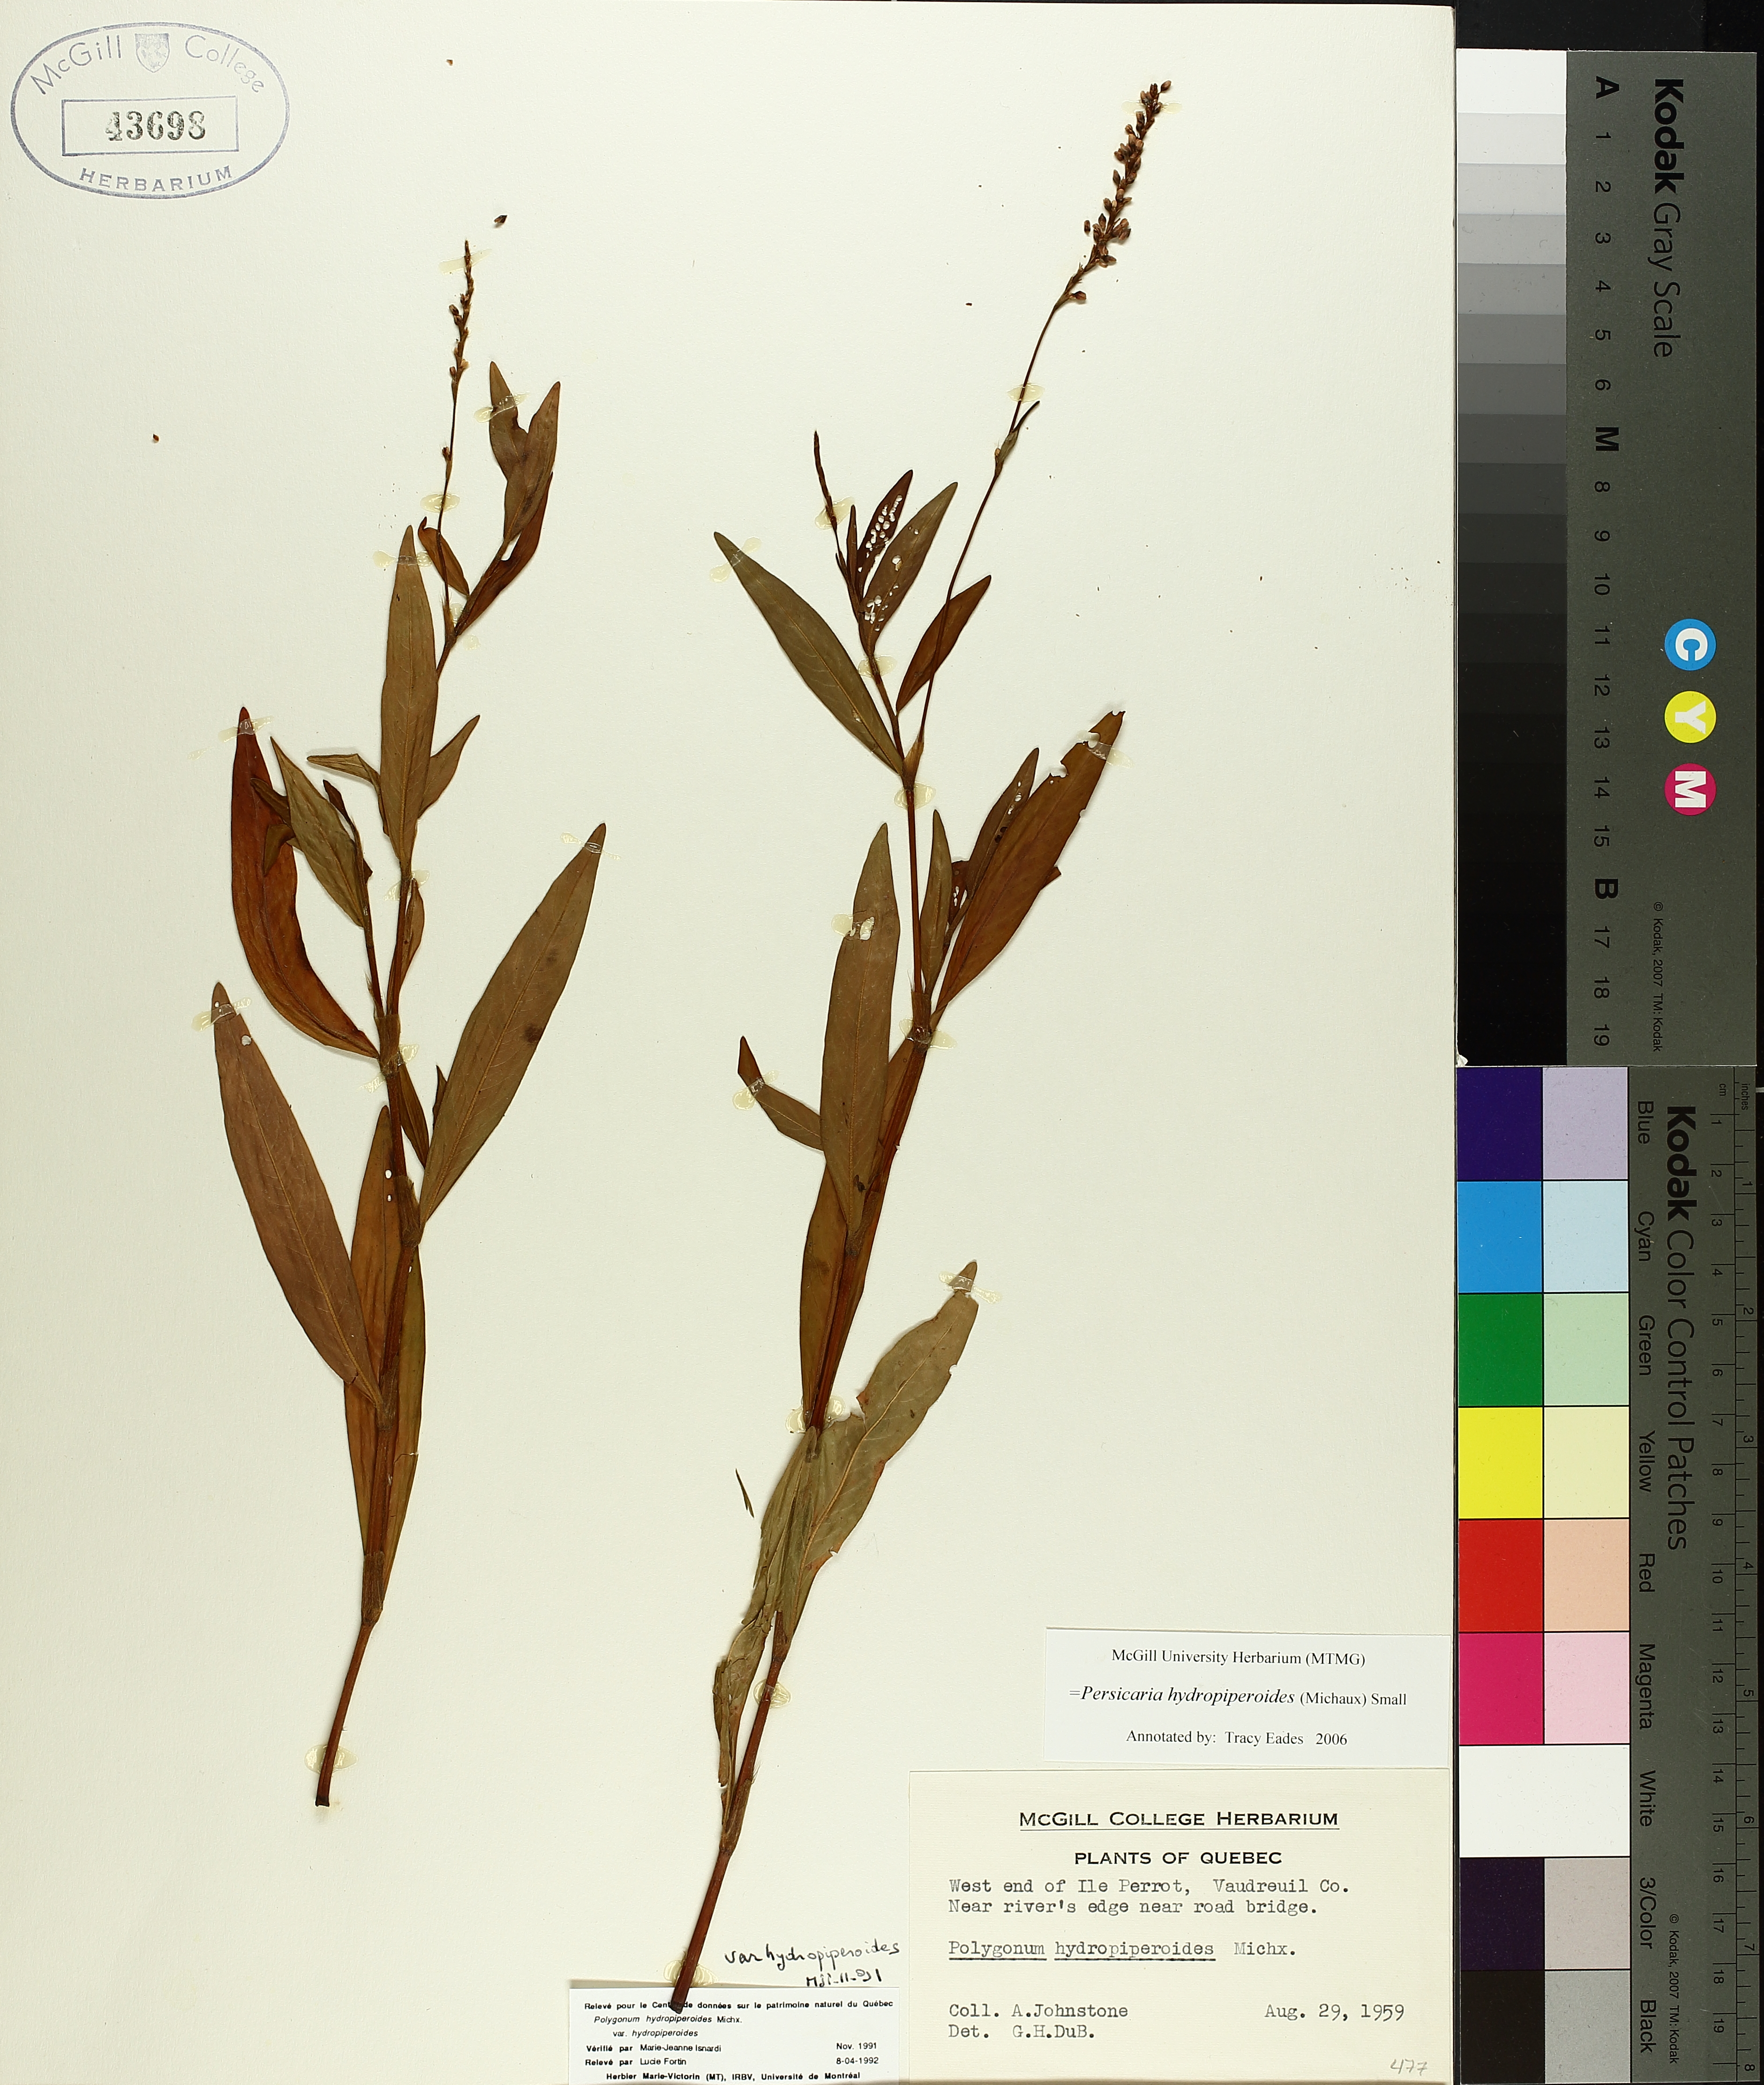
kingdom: Plantae
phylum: Tracheophyta
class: Magnoliopsida
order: Caryophyllales
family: Polygonaceae
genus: Persicaria
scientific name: Persicaria hydropiperoides
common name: Swamp smartweed
